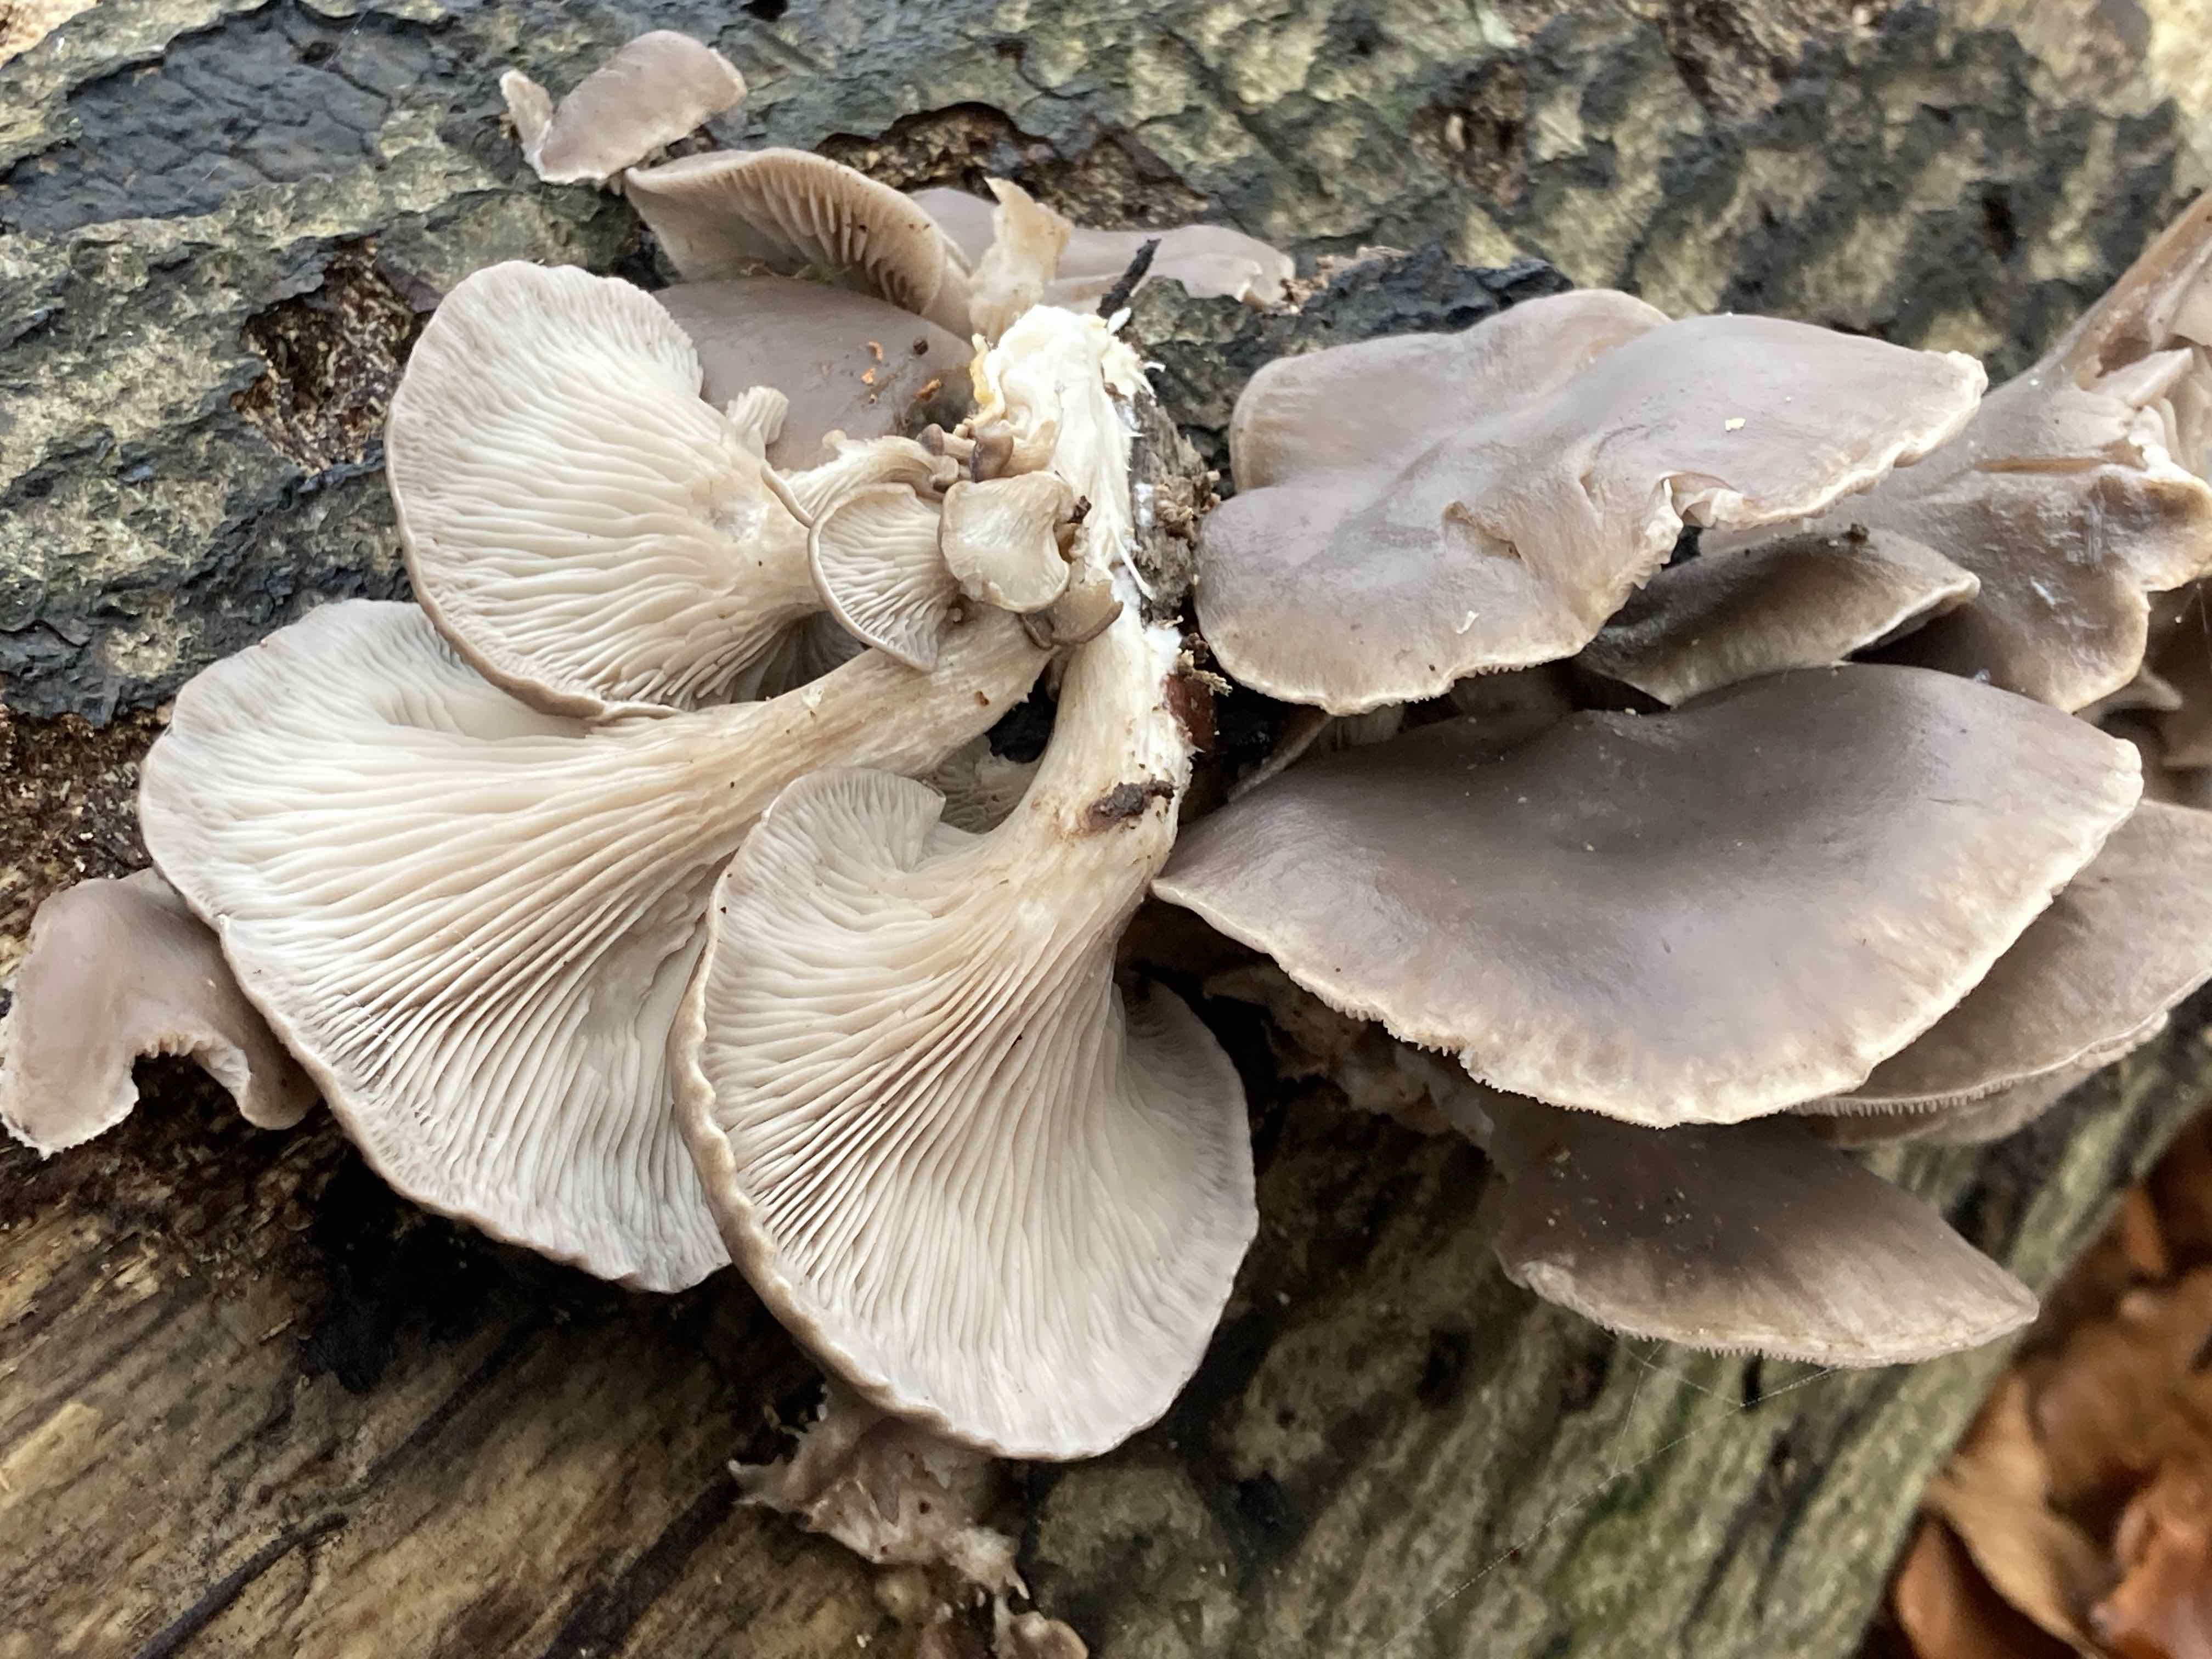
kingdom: Fungi
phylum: Basidiomycota
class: Agaricomycetes
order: Agaricales
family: Pleurotaceae
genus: Pleurotus
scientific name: Pleurotus ostreatus
